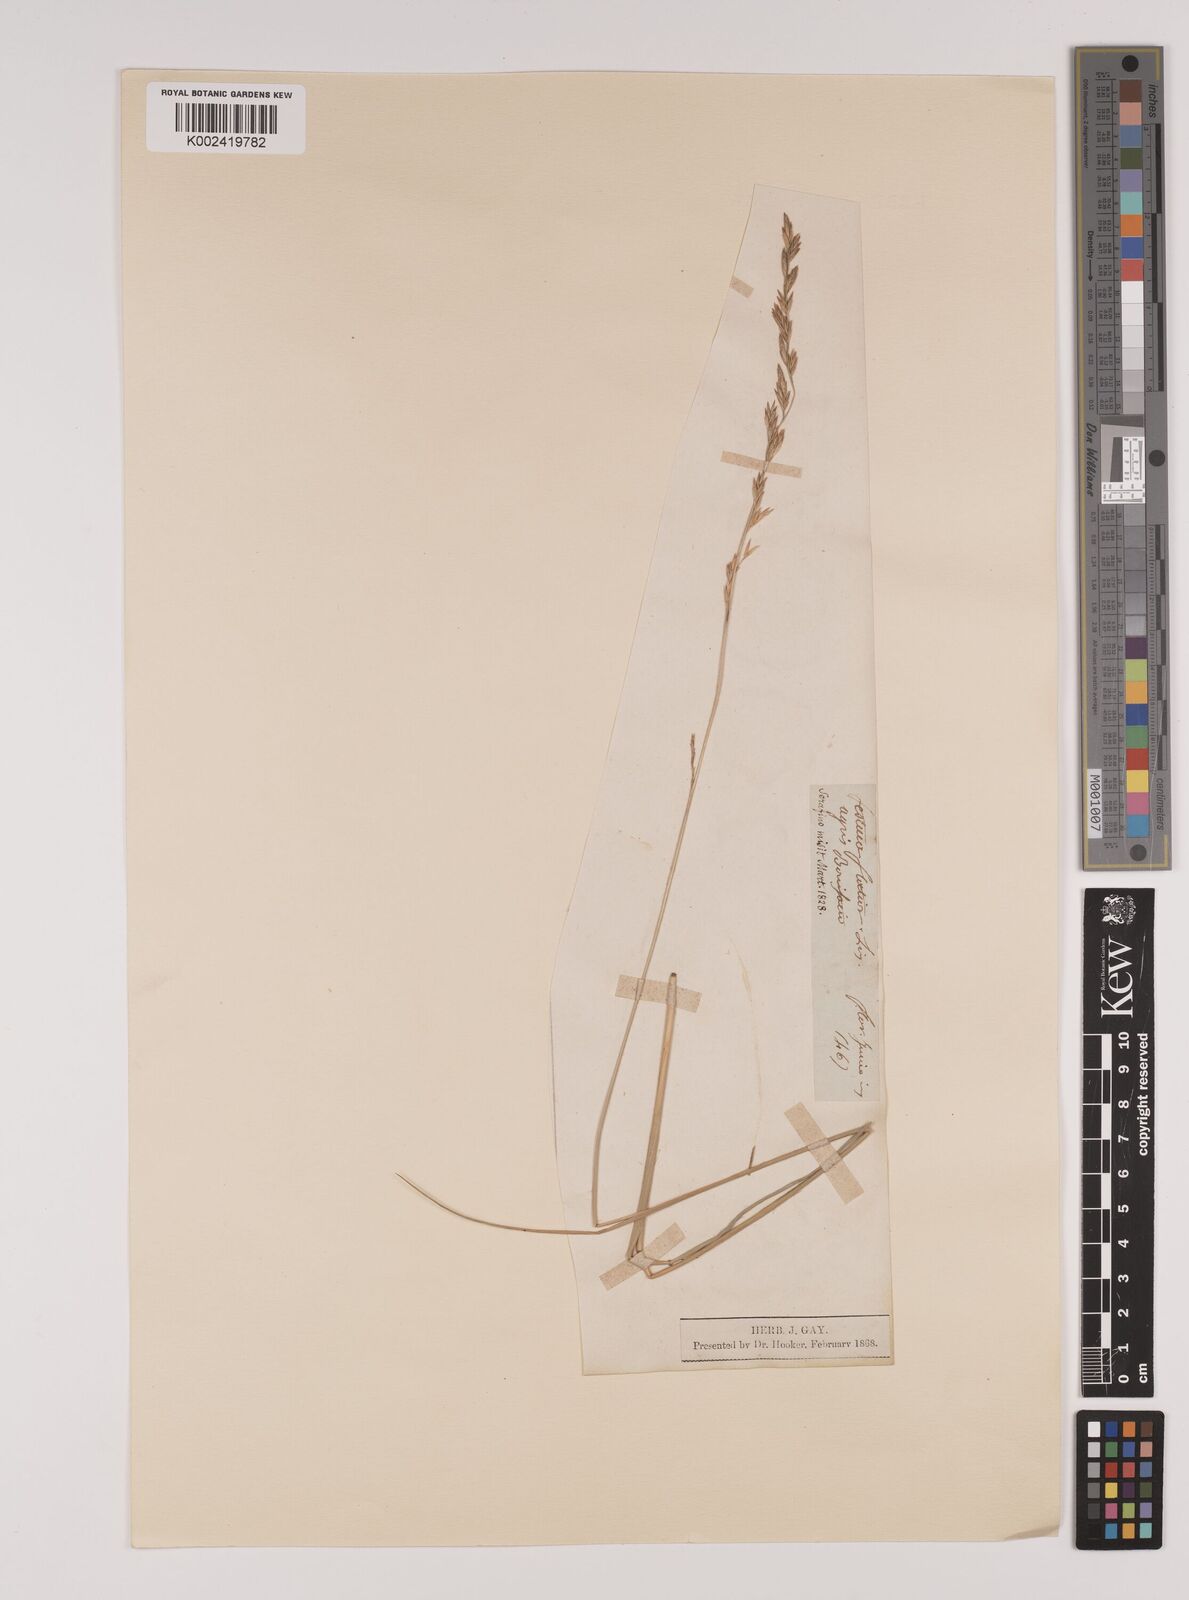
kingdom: Plantae
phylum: Tracheophyta
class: Liliopsida
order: Poales
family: Poaceae
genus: Lolium
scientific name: Lolium pratense
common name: Dover grass
